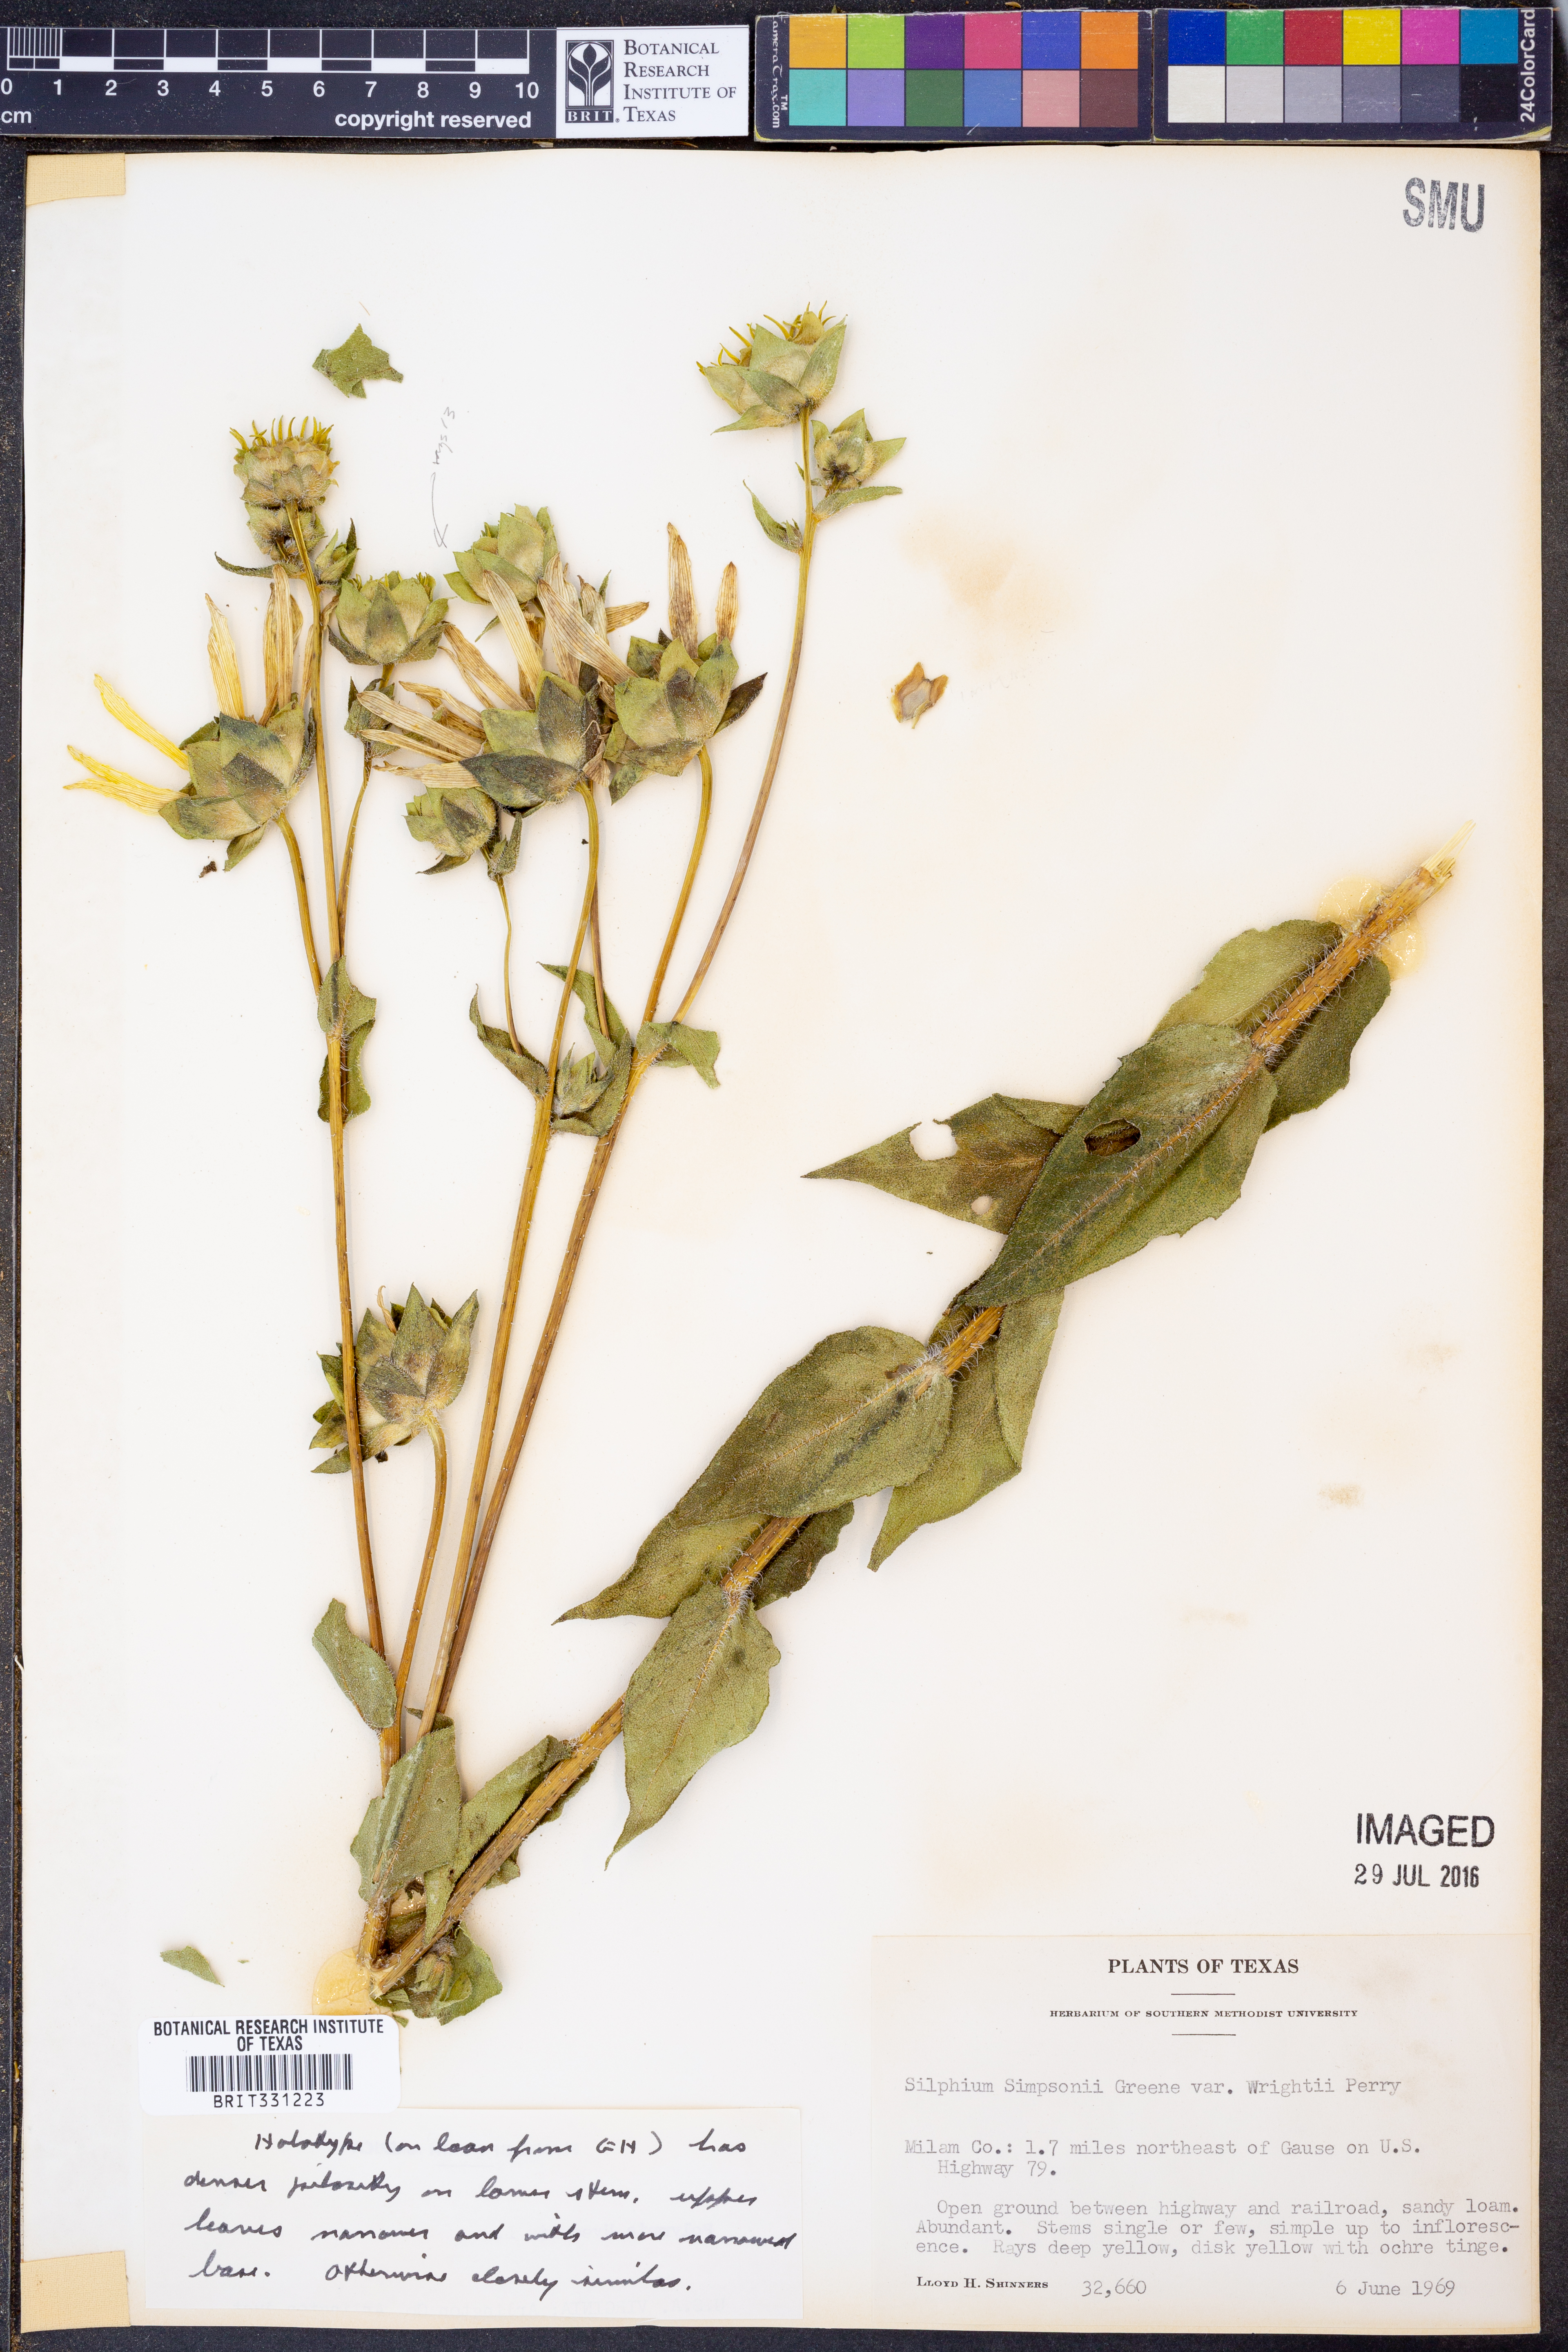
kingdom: Plantae
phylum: Tracheophyta
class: Magnoliopsida
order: Asterales
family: Asteraceae
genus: Silphium
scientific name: Silphium radula
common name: Roughleaf rosinweed
